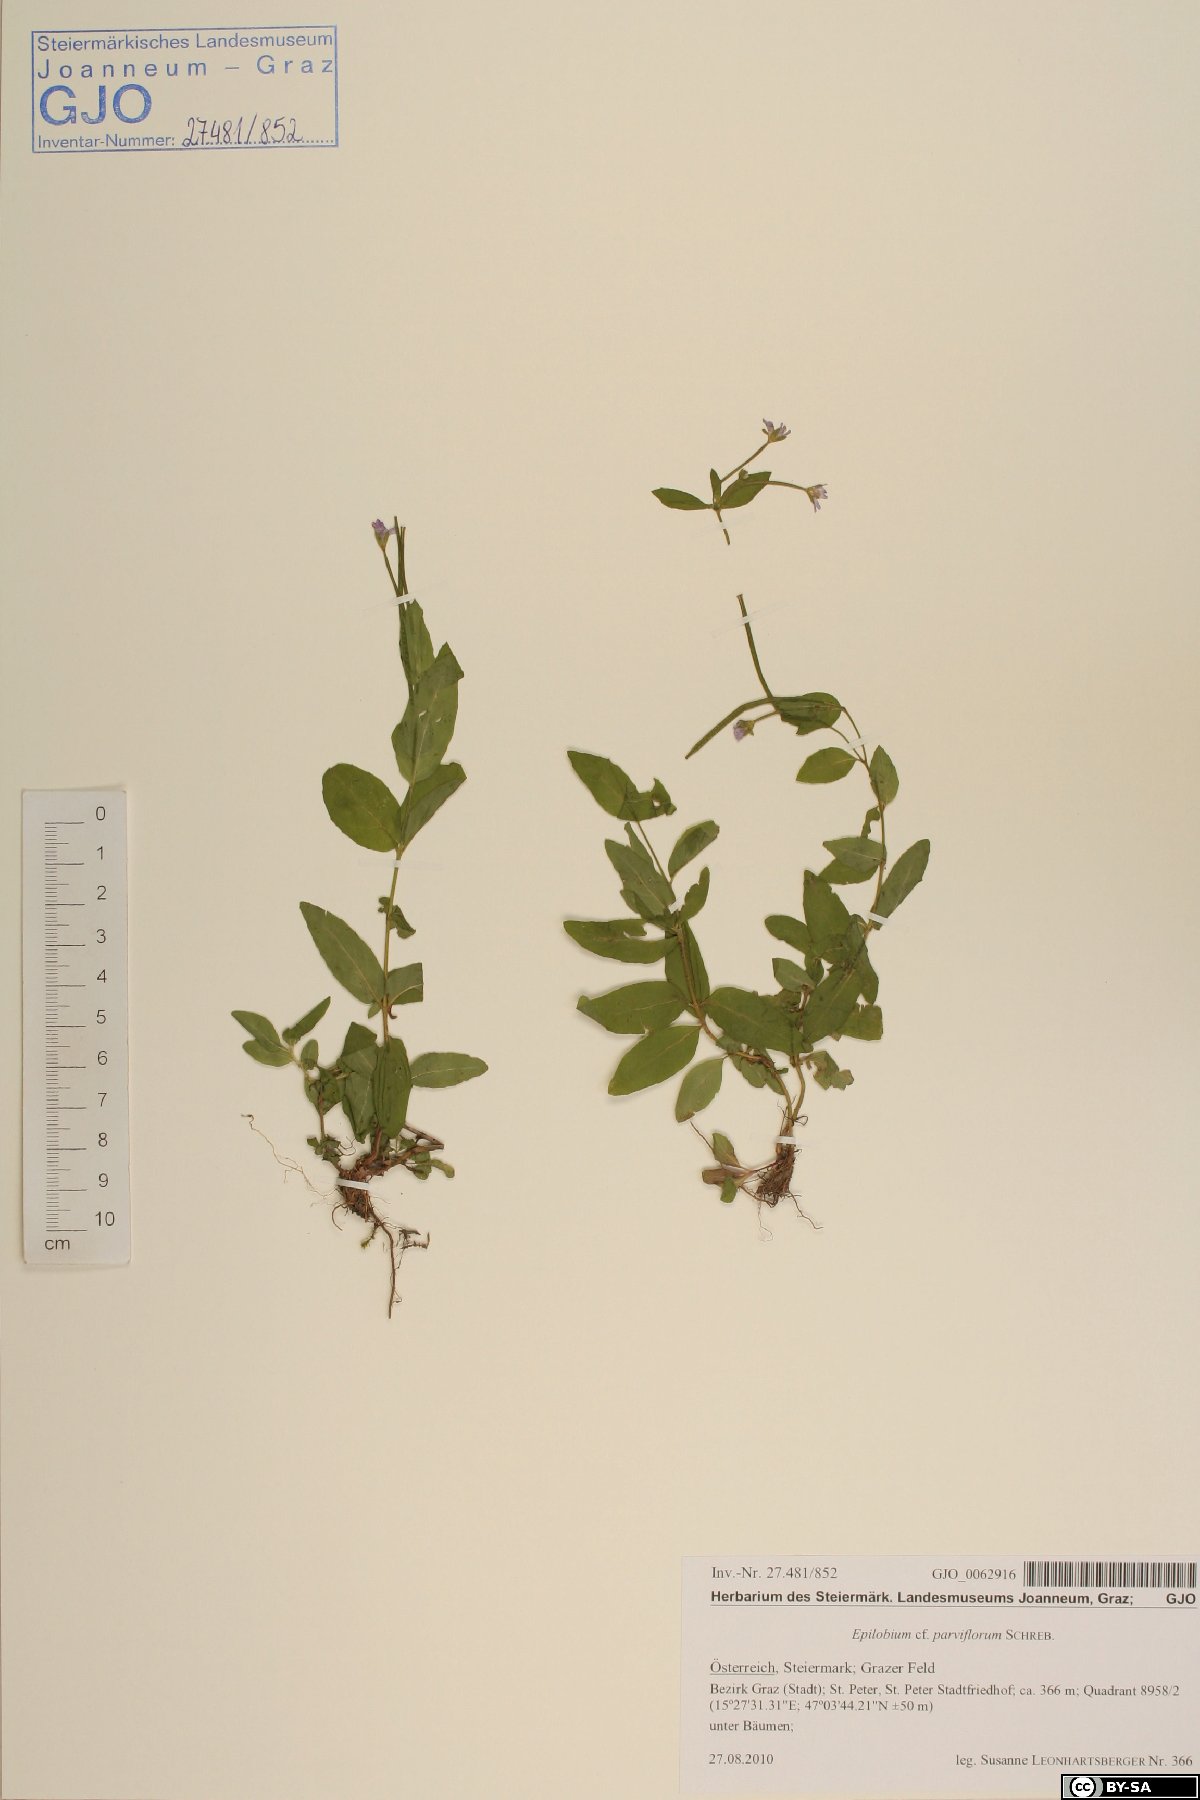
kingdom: Plantae
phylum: Tracheophyta
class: Magnoliopsida
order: Myrtales
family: Onagraceae
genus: Epilobium
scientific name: Epilobium parviflorum
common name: Hoary willowherb
